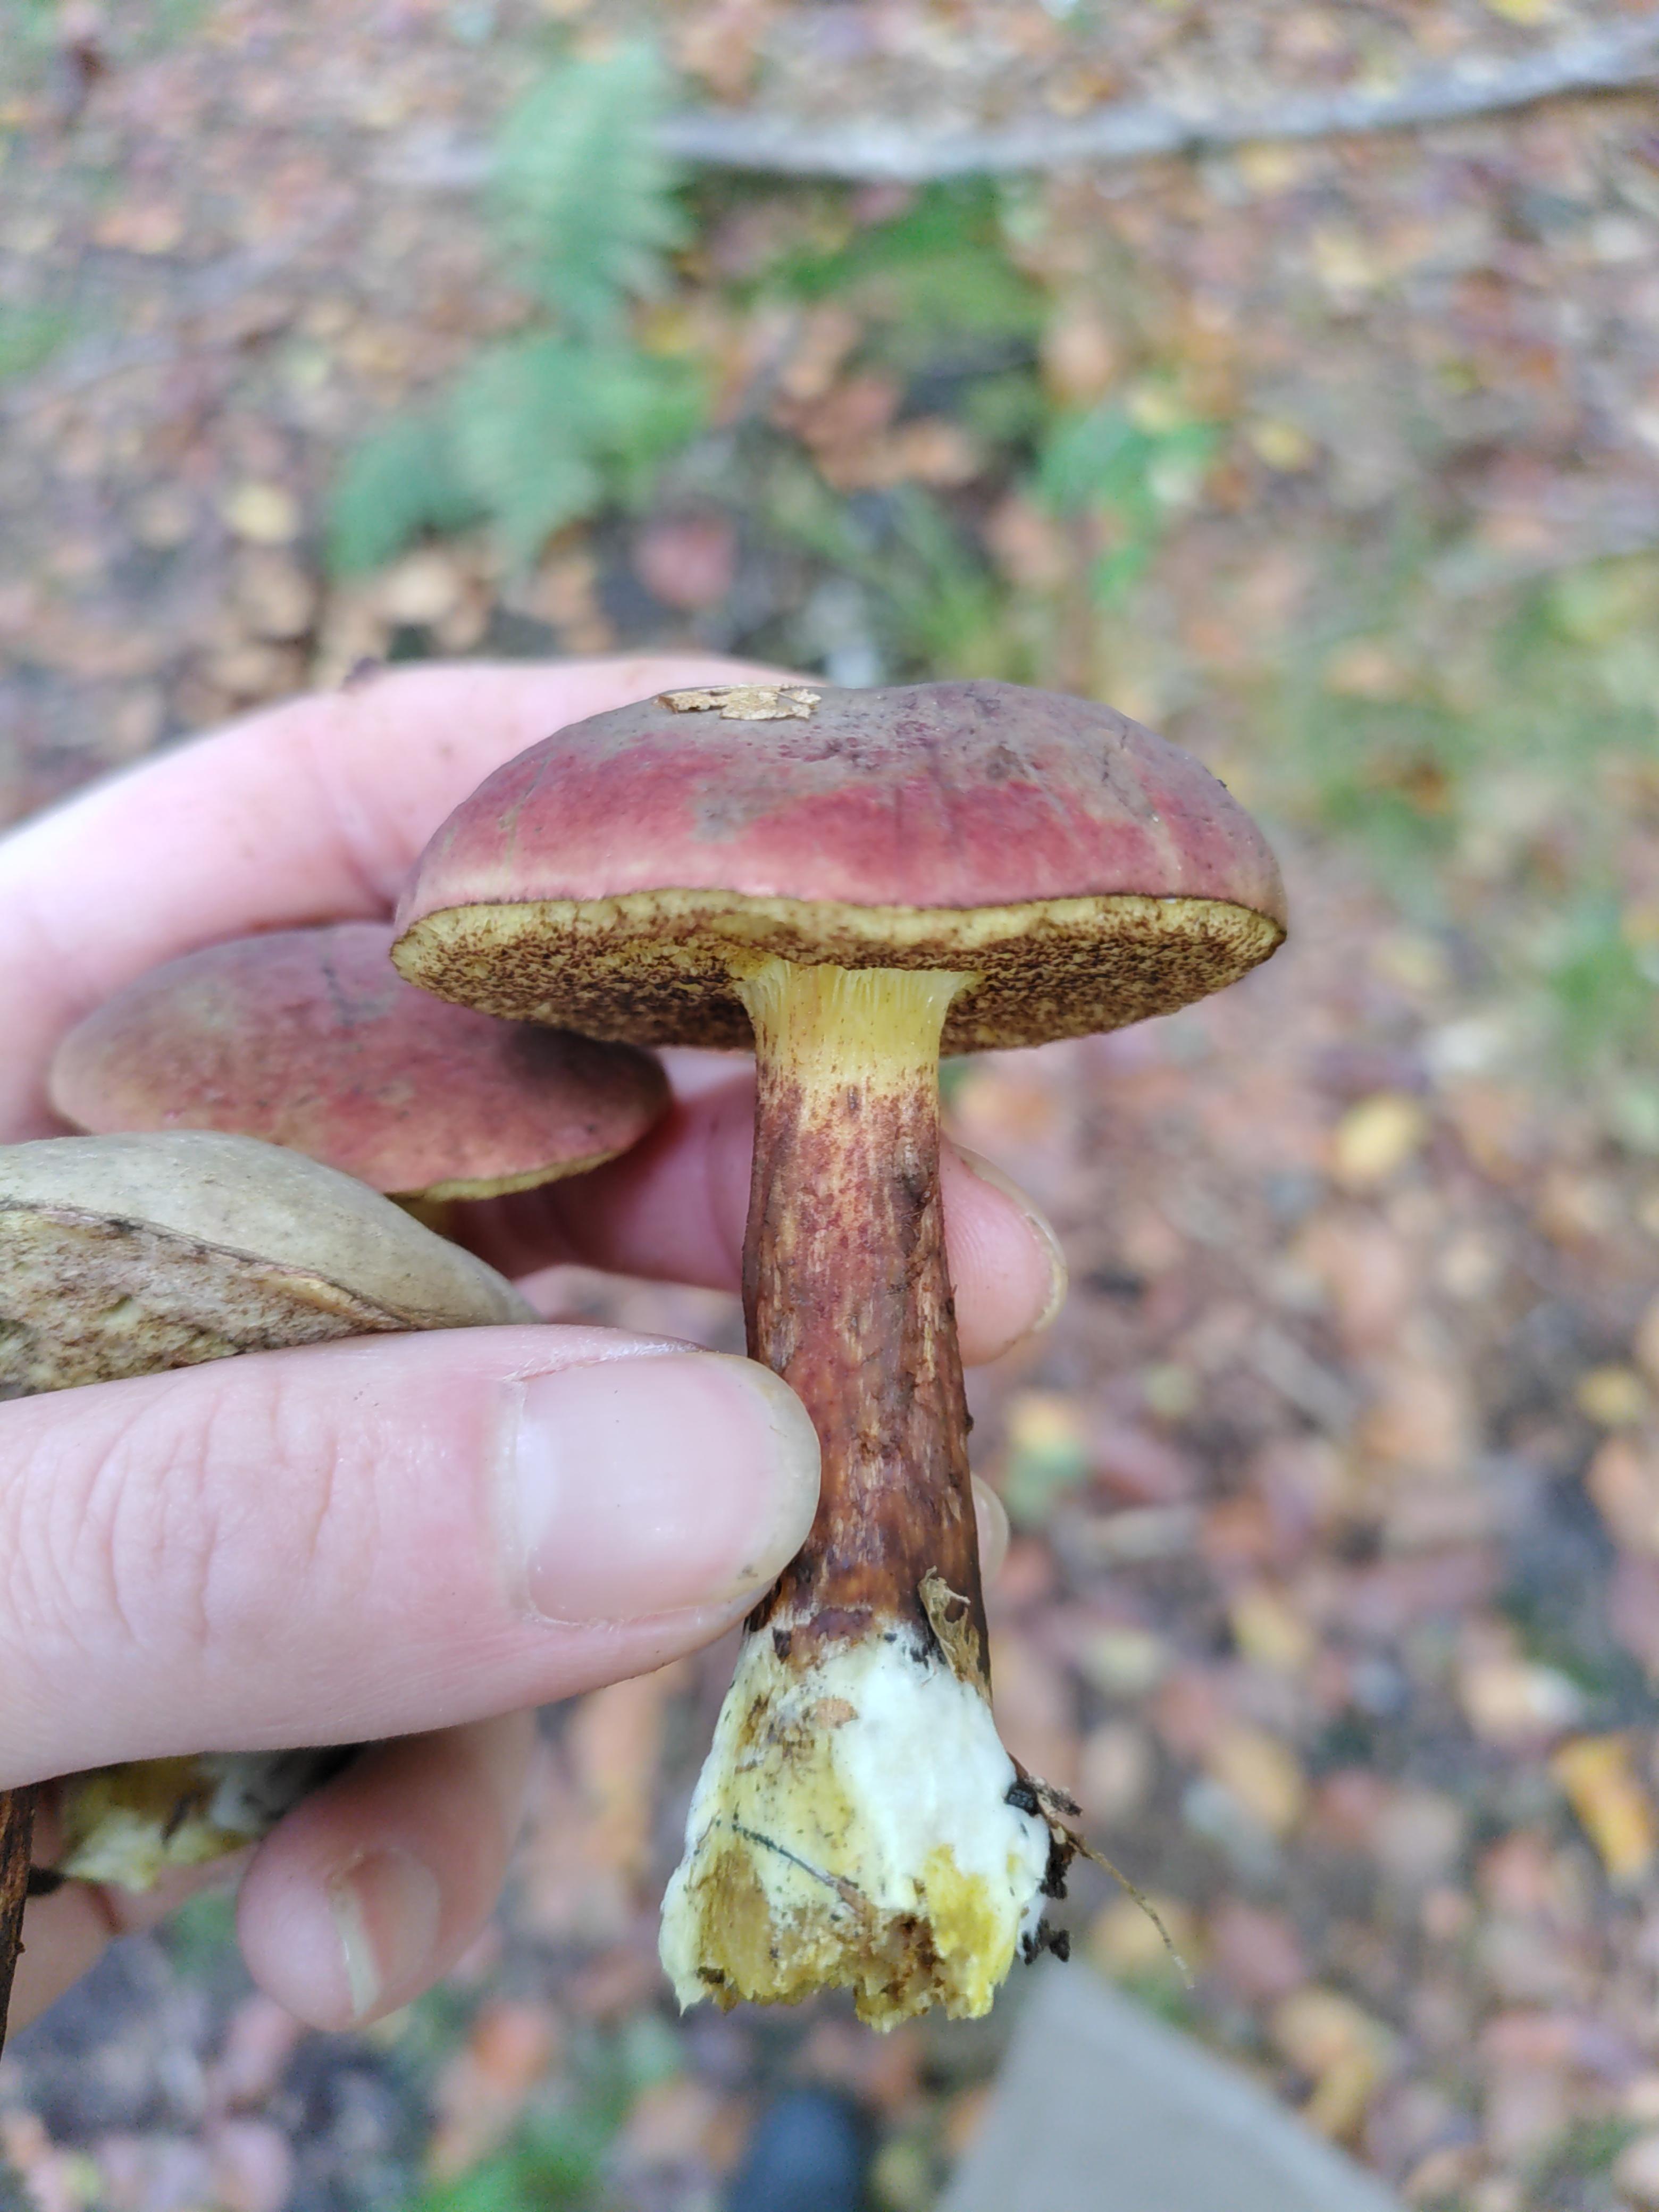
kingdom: Fungi
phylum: Basidiomycota
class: Agaricomycetes
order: Boletales
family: Boletaceae
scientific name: Boletaceae
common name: rørhatfamilien
